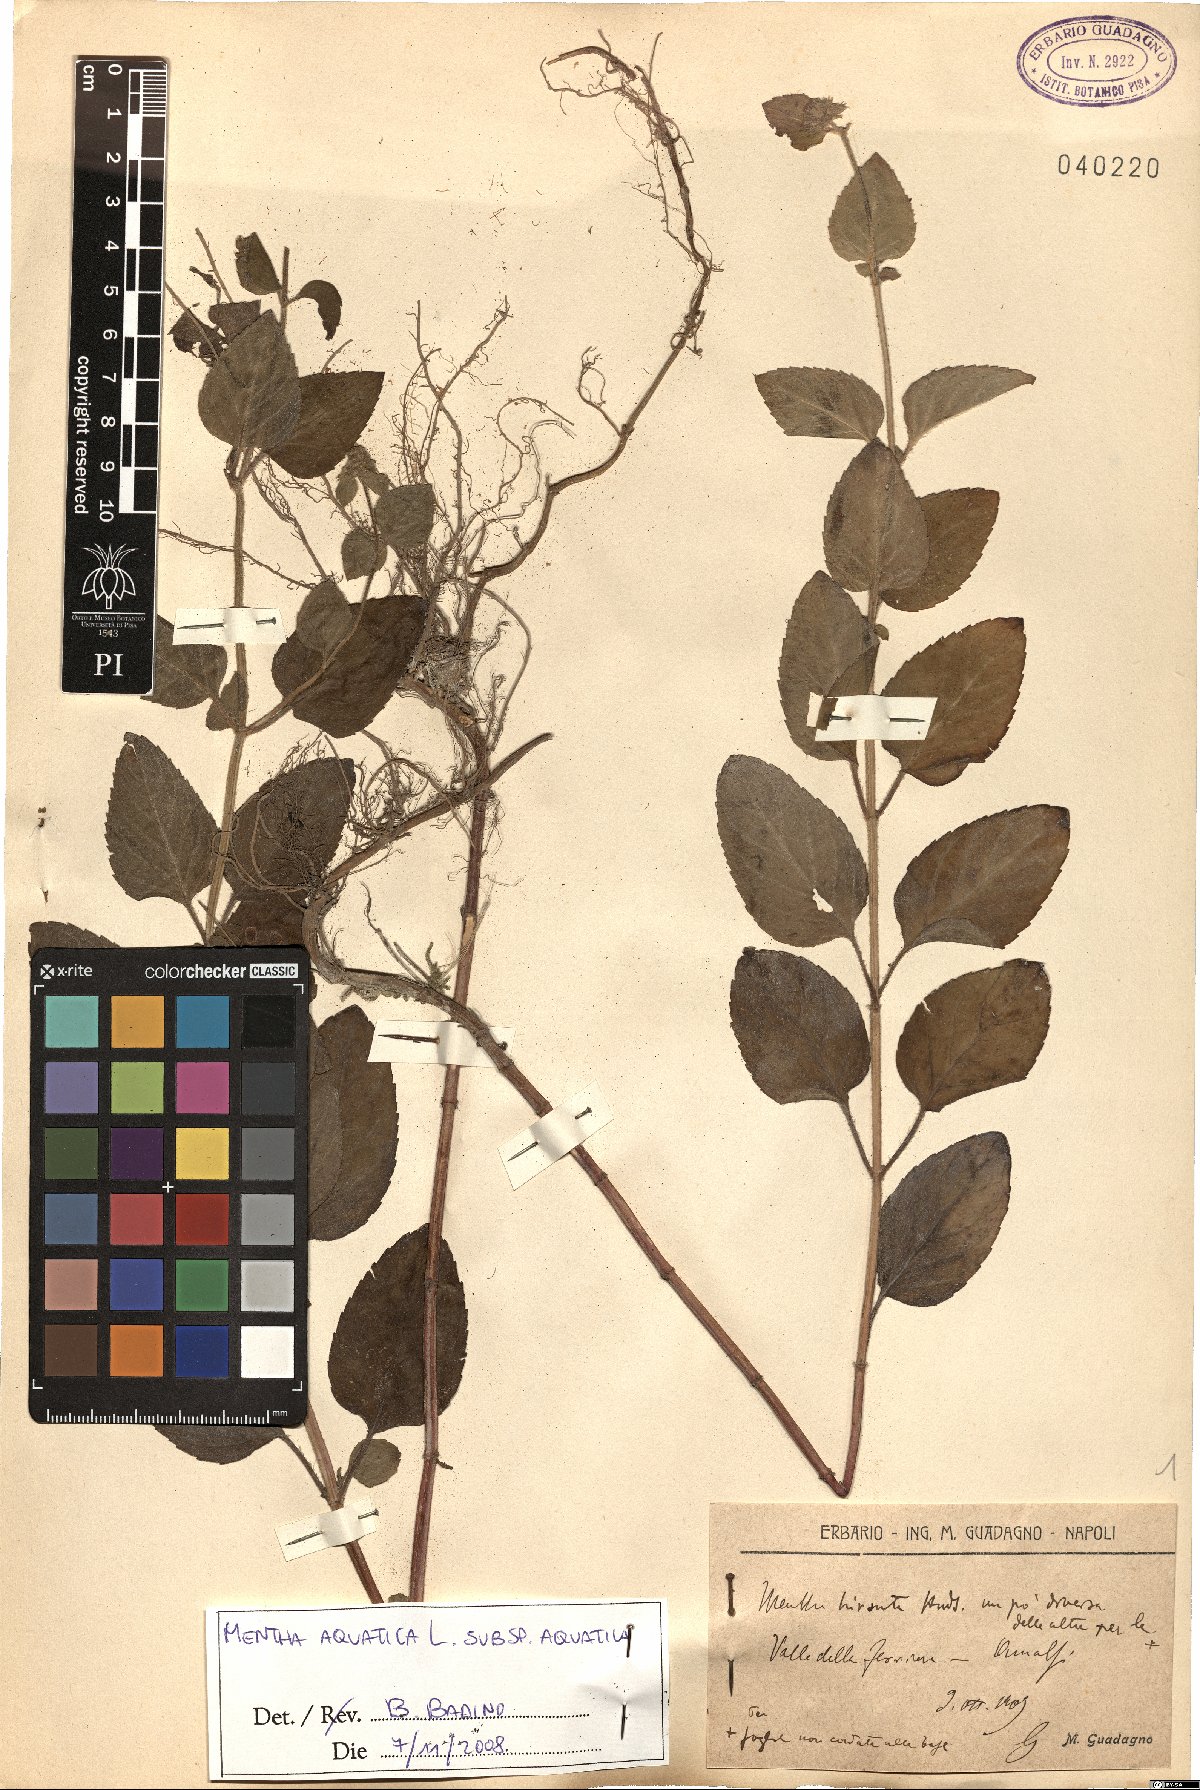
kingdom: Plantae
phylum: Tracheophyta
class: Magnoliopsida
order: Lamiales
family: Lamiaceae
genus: Mentha
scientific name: Mentha aquatica
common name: Water mint
